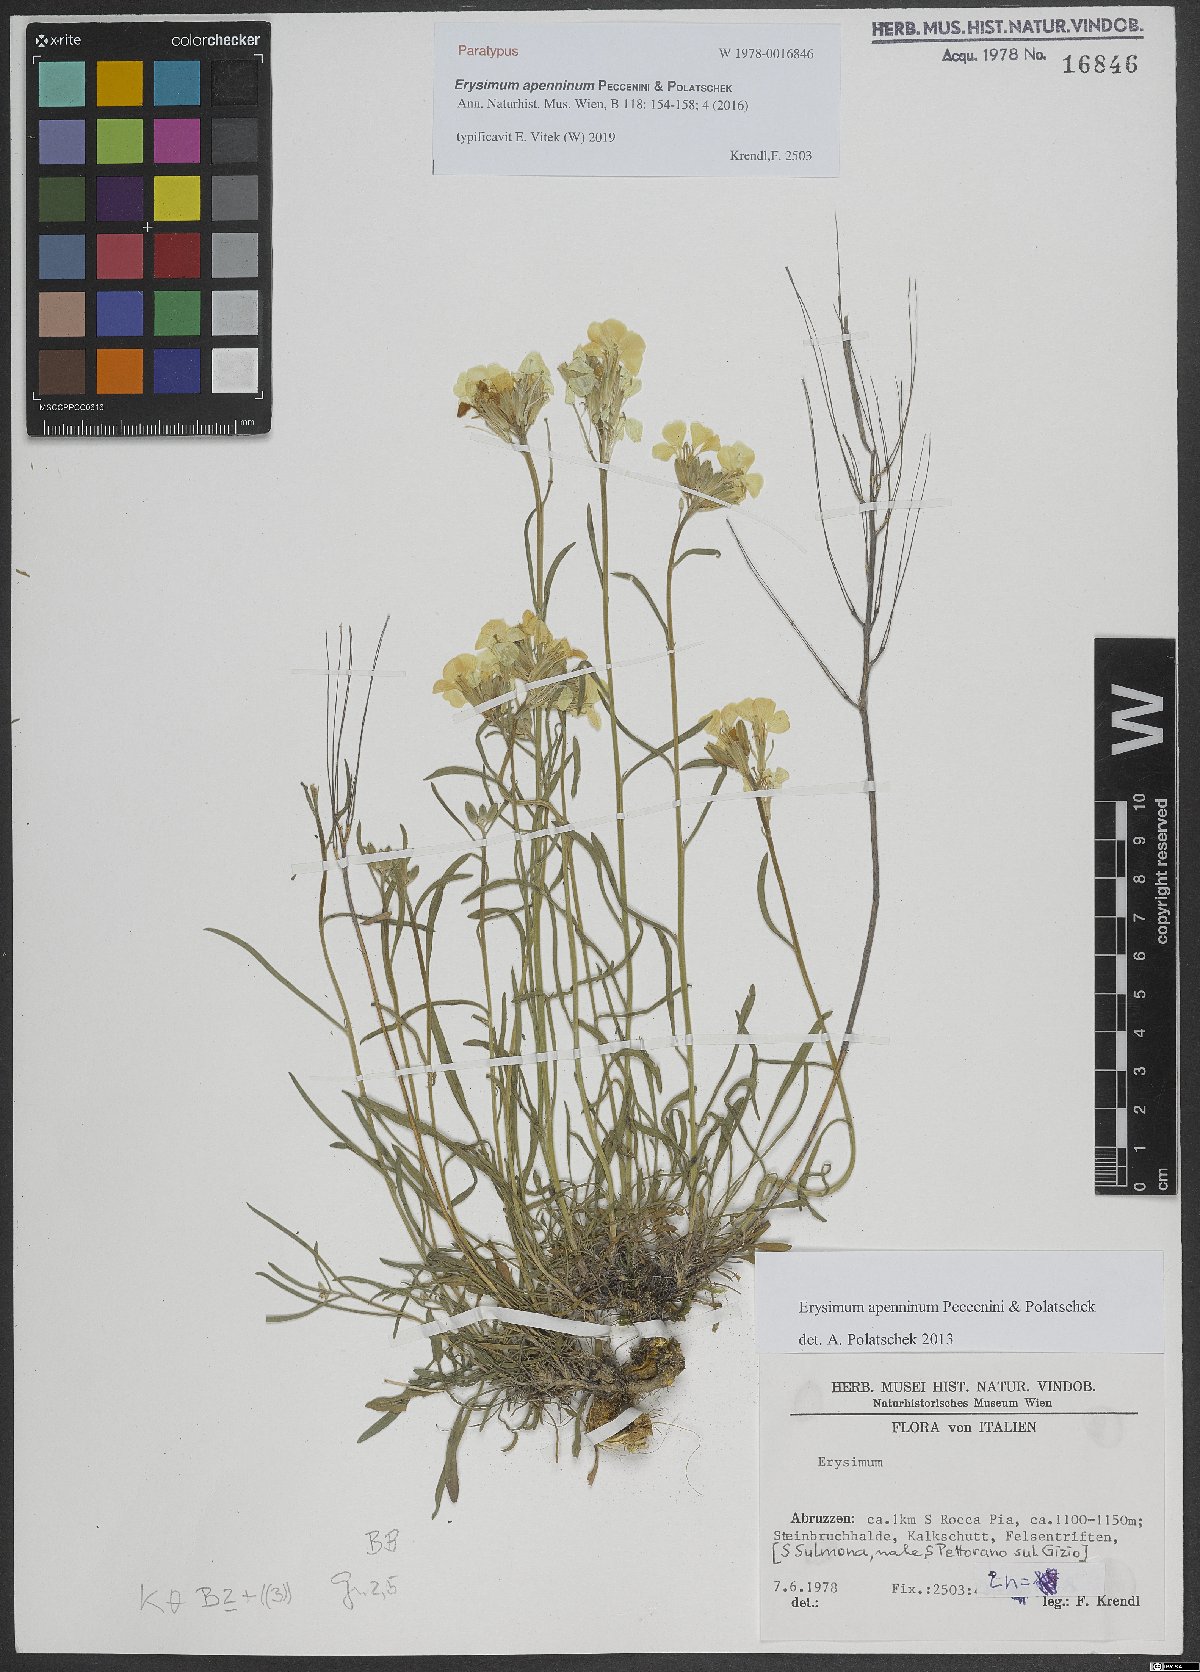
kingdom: Plantae
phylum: Tracheophyta
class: Magnoliopsida
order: Brassicales
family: Brassicaceae
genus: Erysimum
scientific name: Erysimum apenninum
